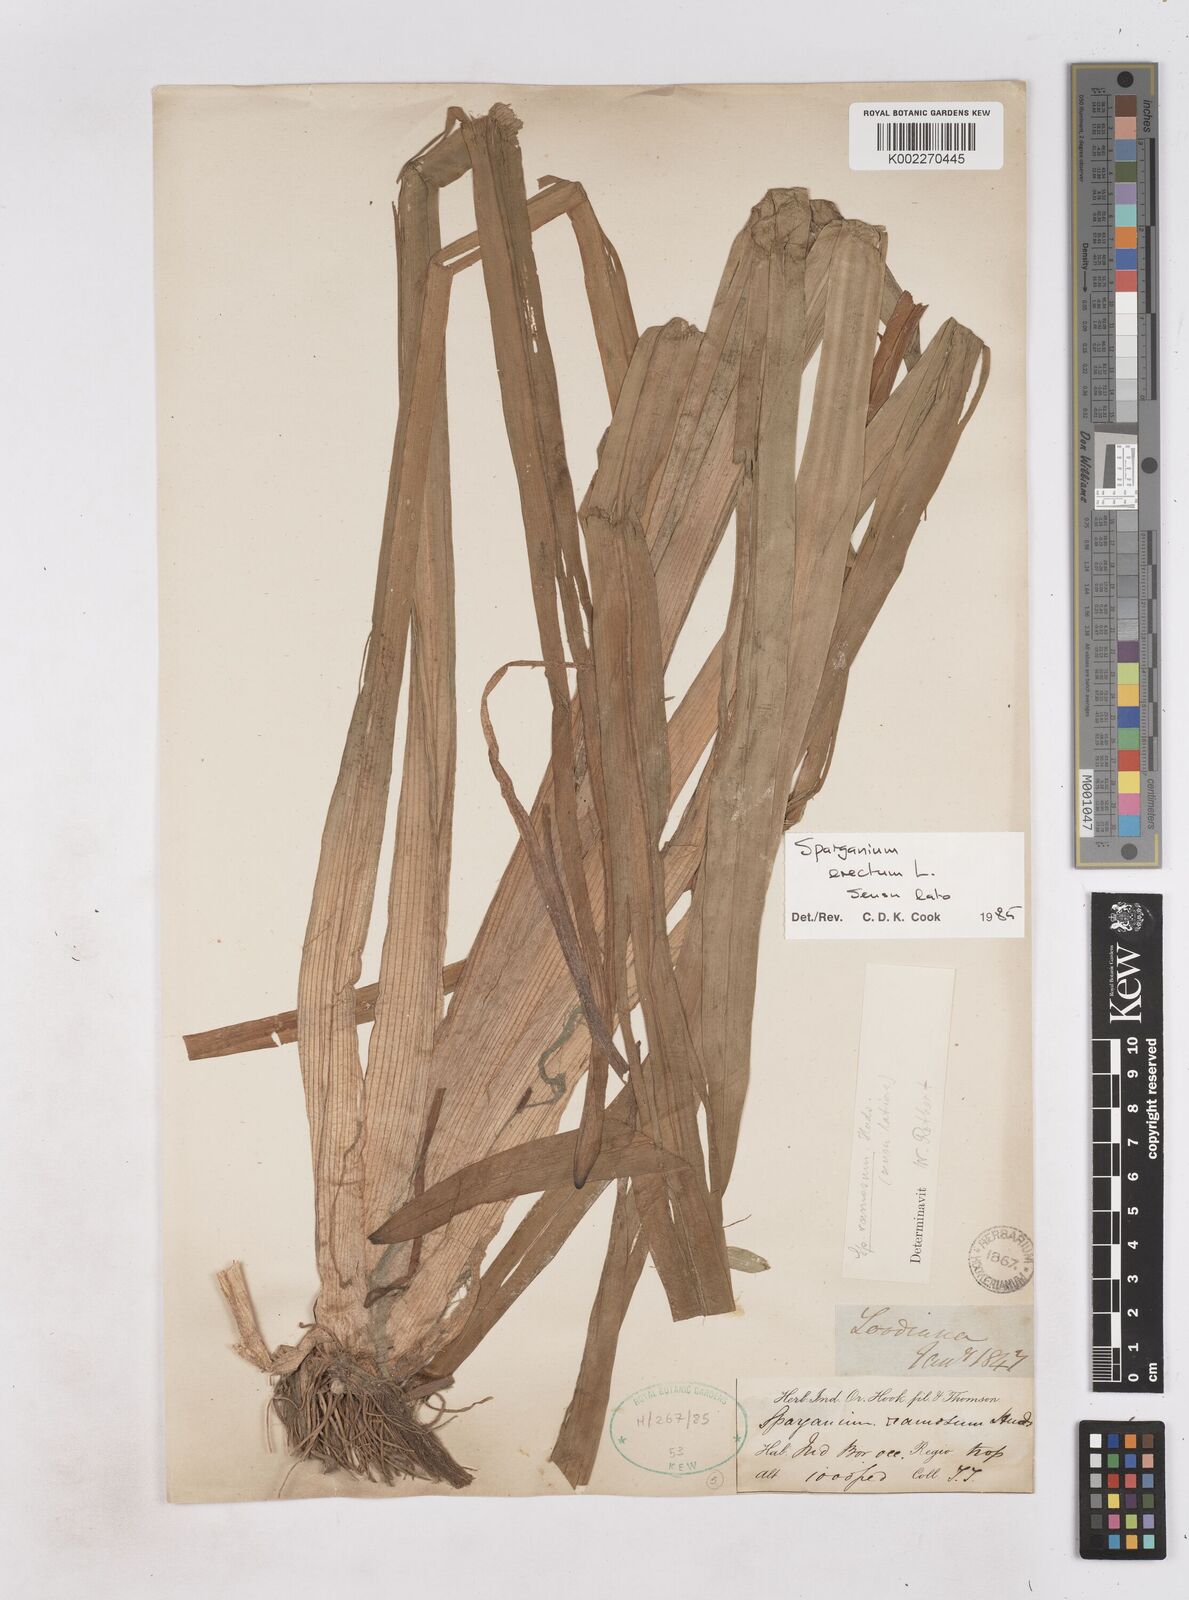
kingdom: Plantae
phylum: Tracheophyta
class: Liliopsida
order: Poales
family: Typhaceae
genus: Sparganium
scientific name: Sparganium erectum
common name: Branched bur-reed
